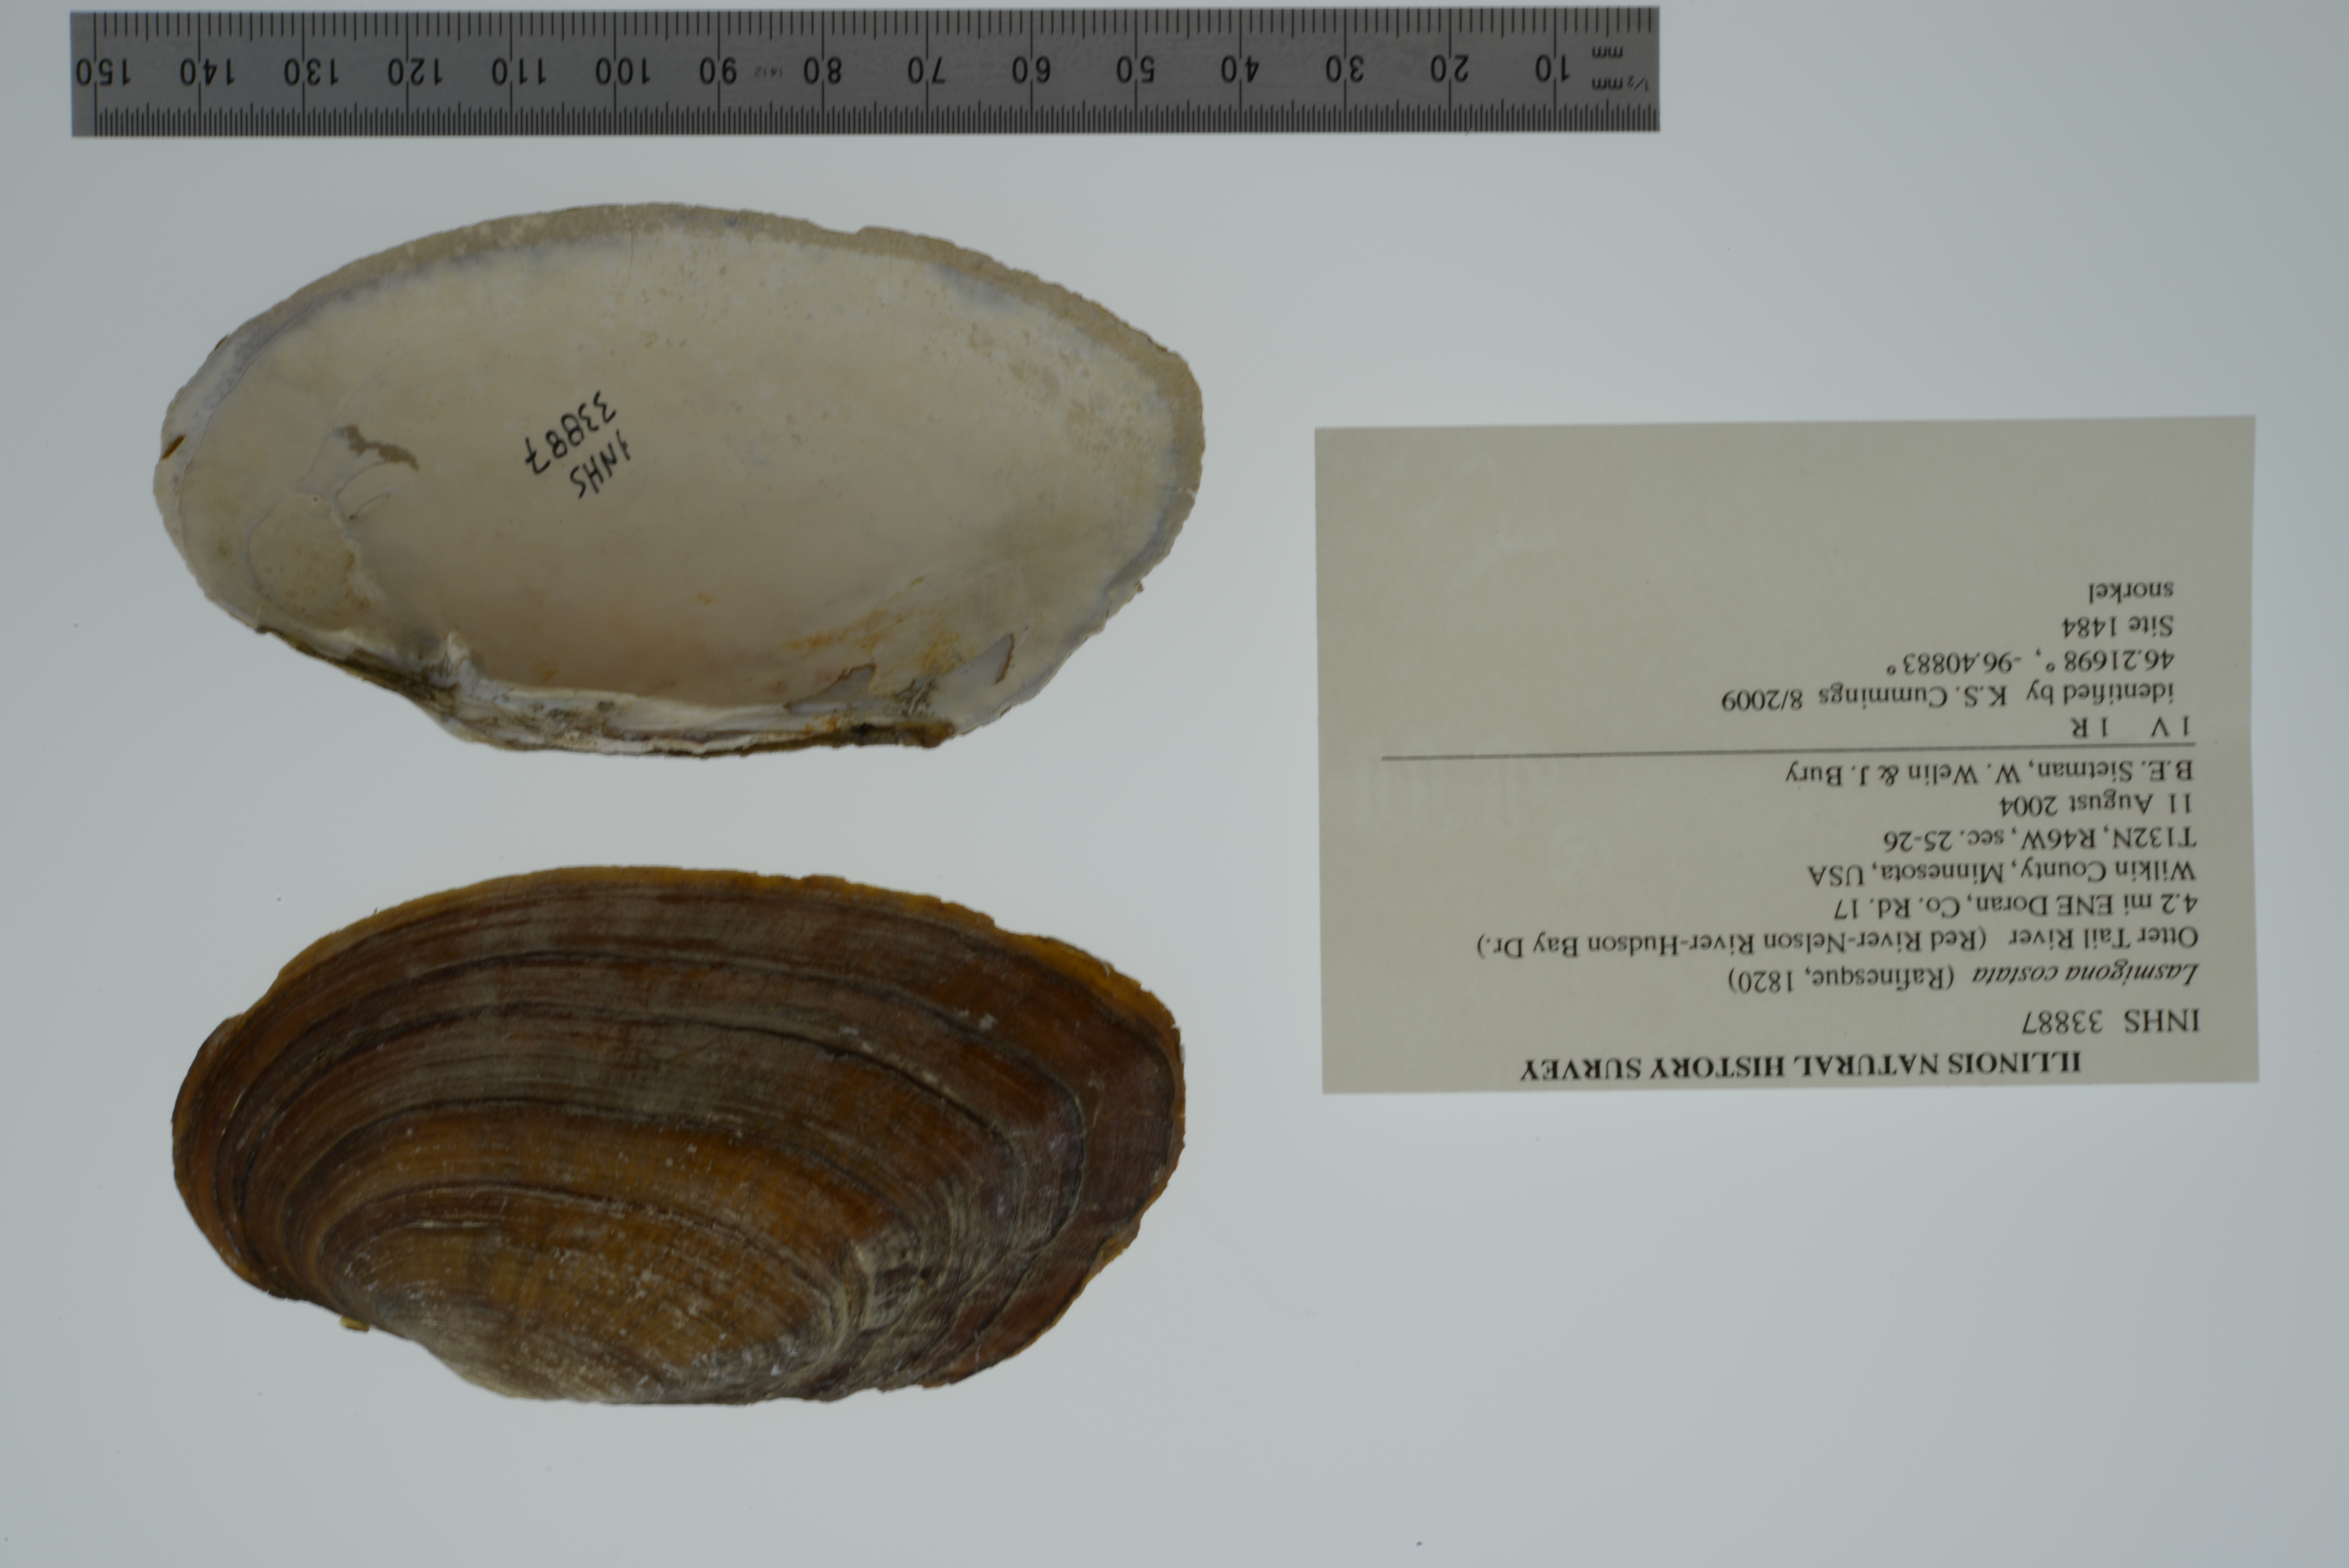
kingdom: Animalia
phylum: Mollusca
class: Bivalvia
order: Unionida
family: Unionidae
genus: Lasmigona
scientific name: Lasmigona costata
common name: Flutedshell
